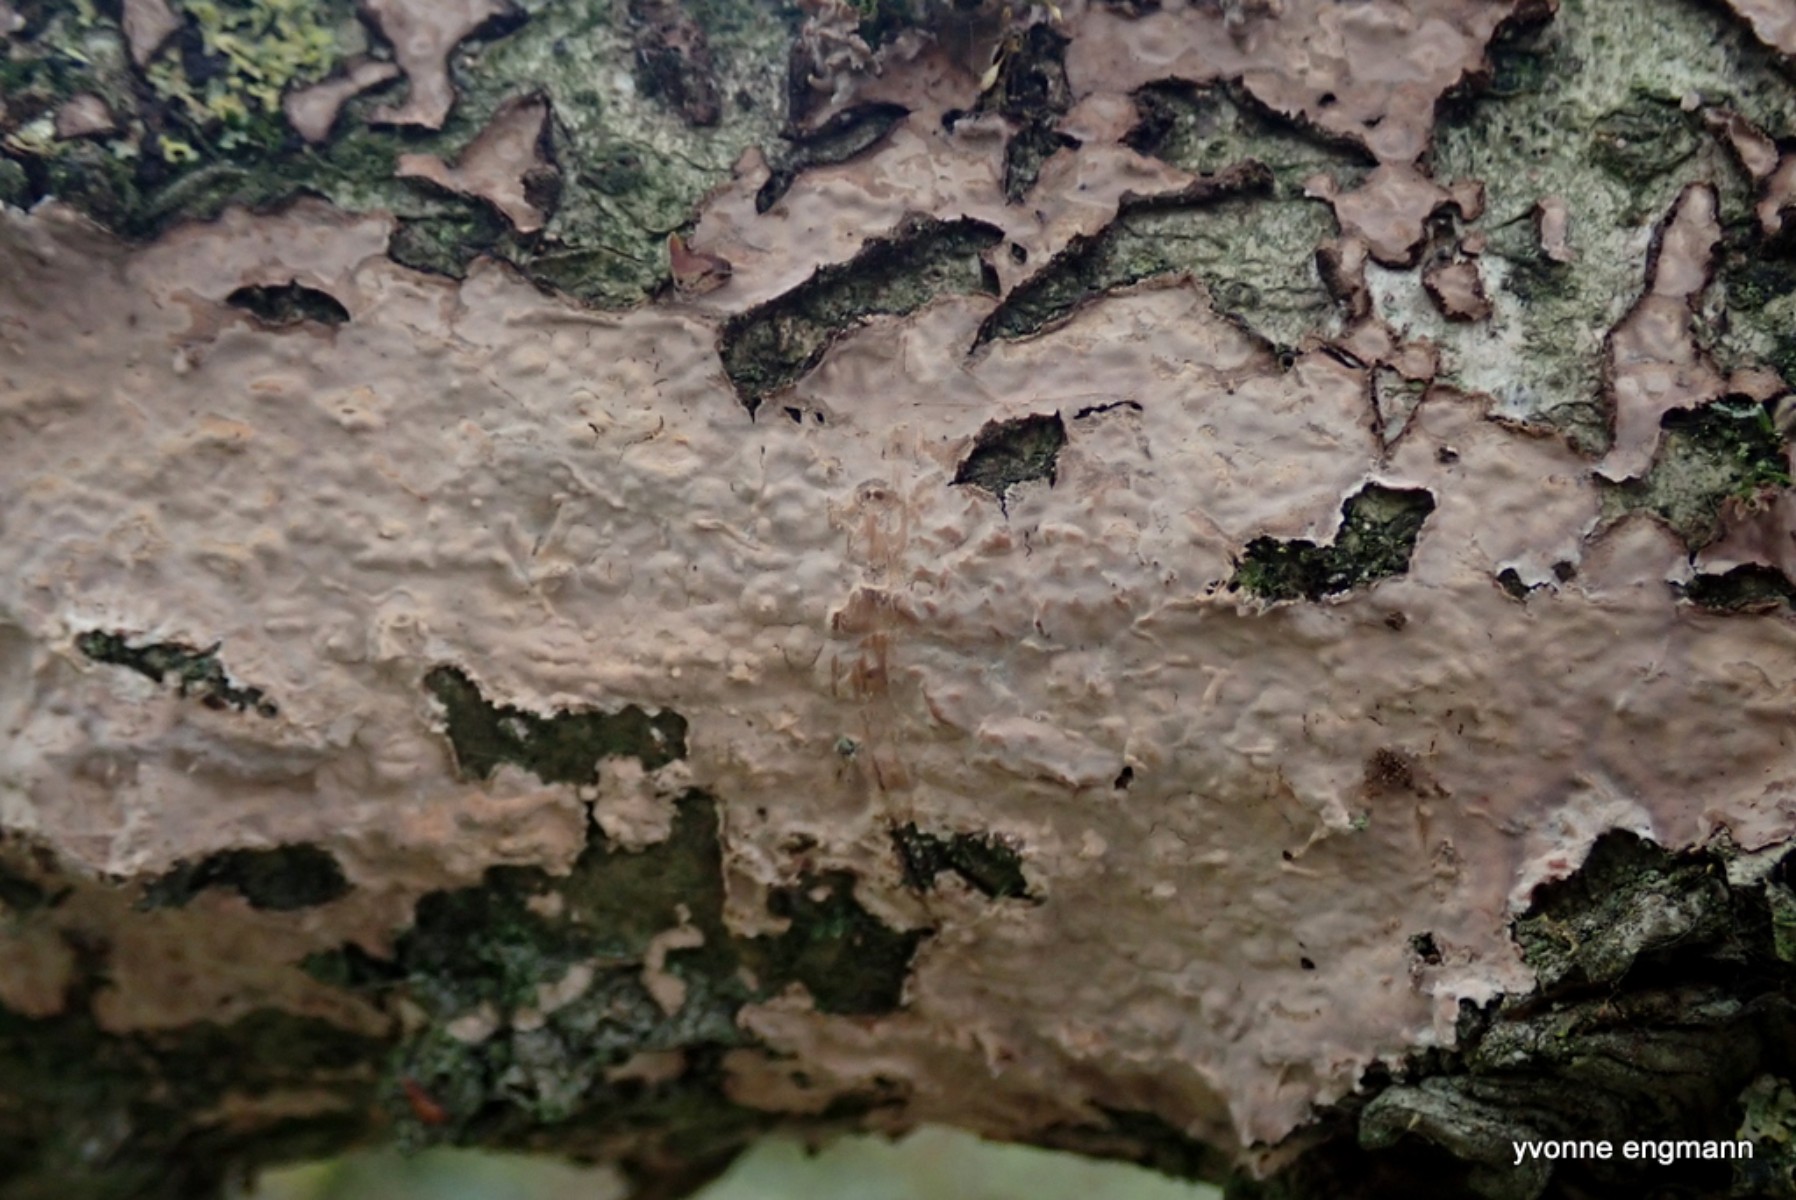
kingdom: Fungi
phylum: Basidiomycota
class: Agaricomycetes
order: Russulales
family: Peniophoraceae
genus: Peniophora
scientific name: Peniophora quercina
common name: ege-voksskind
